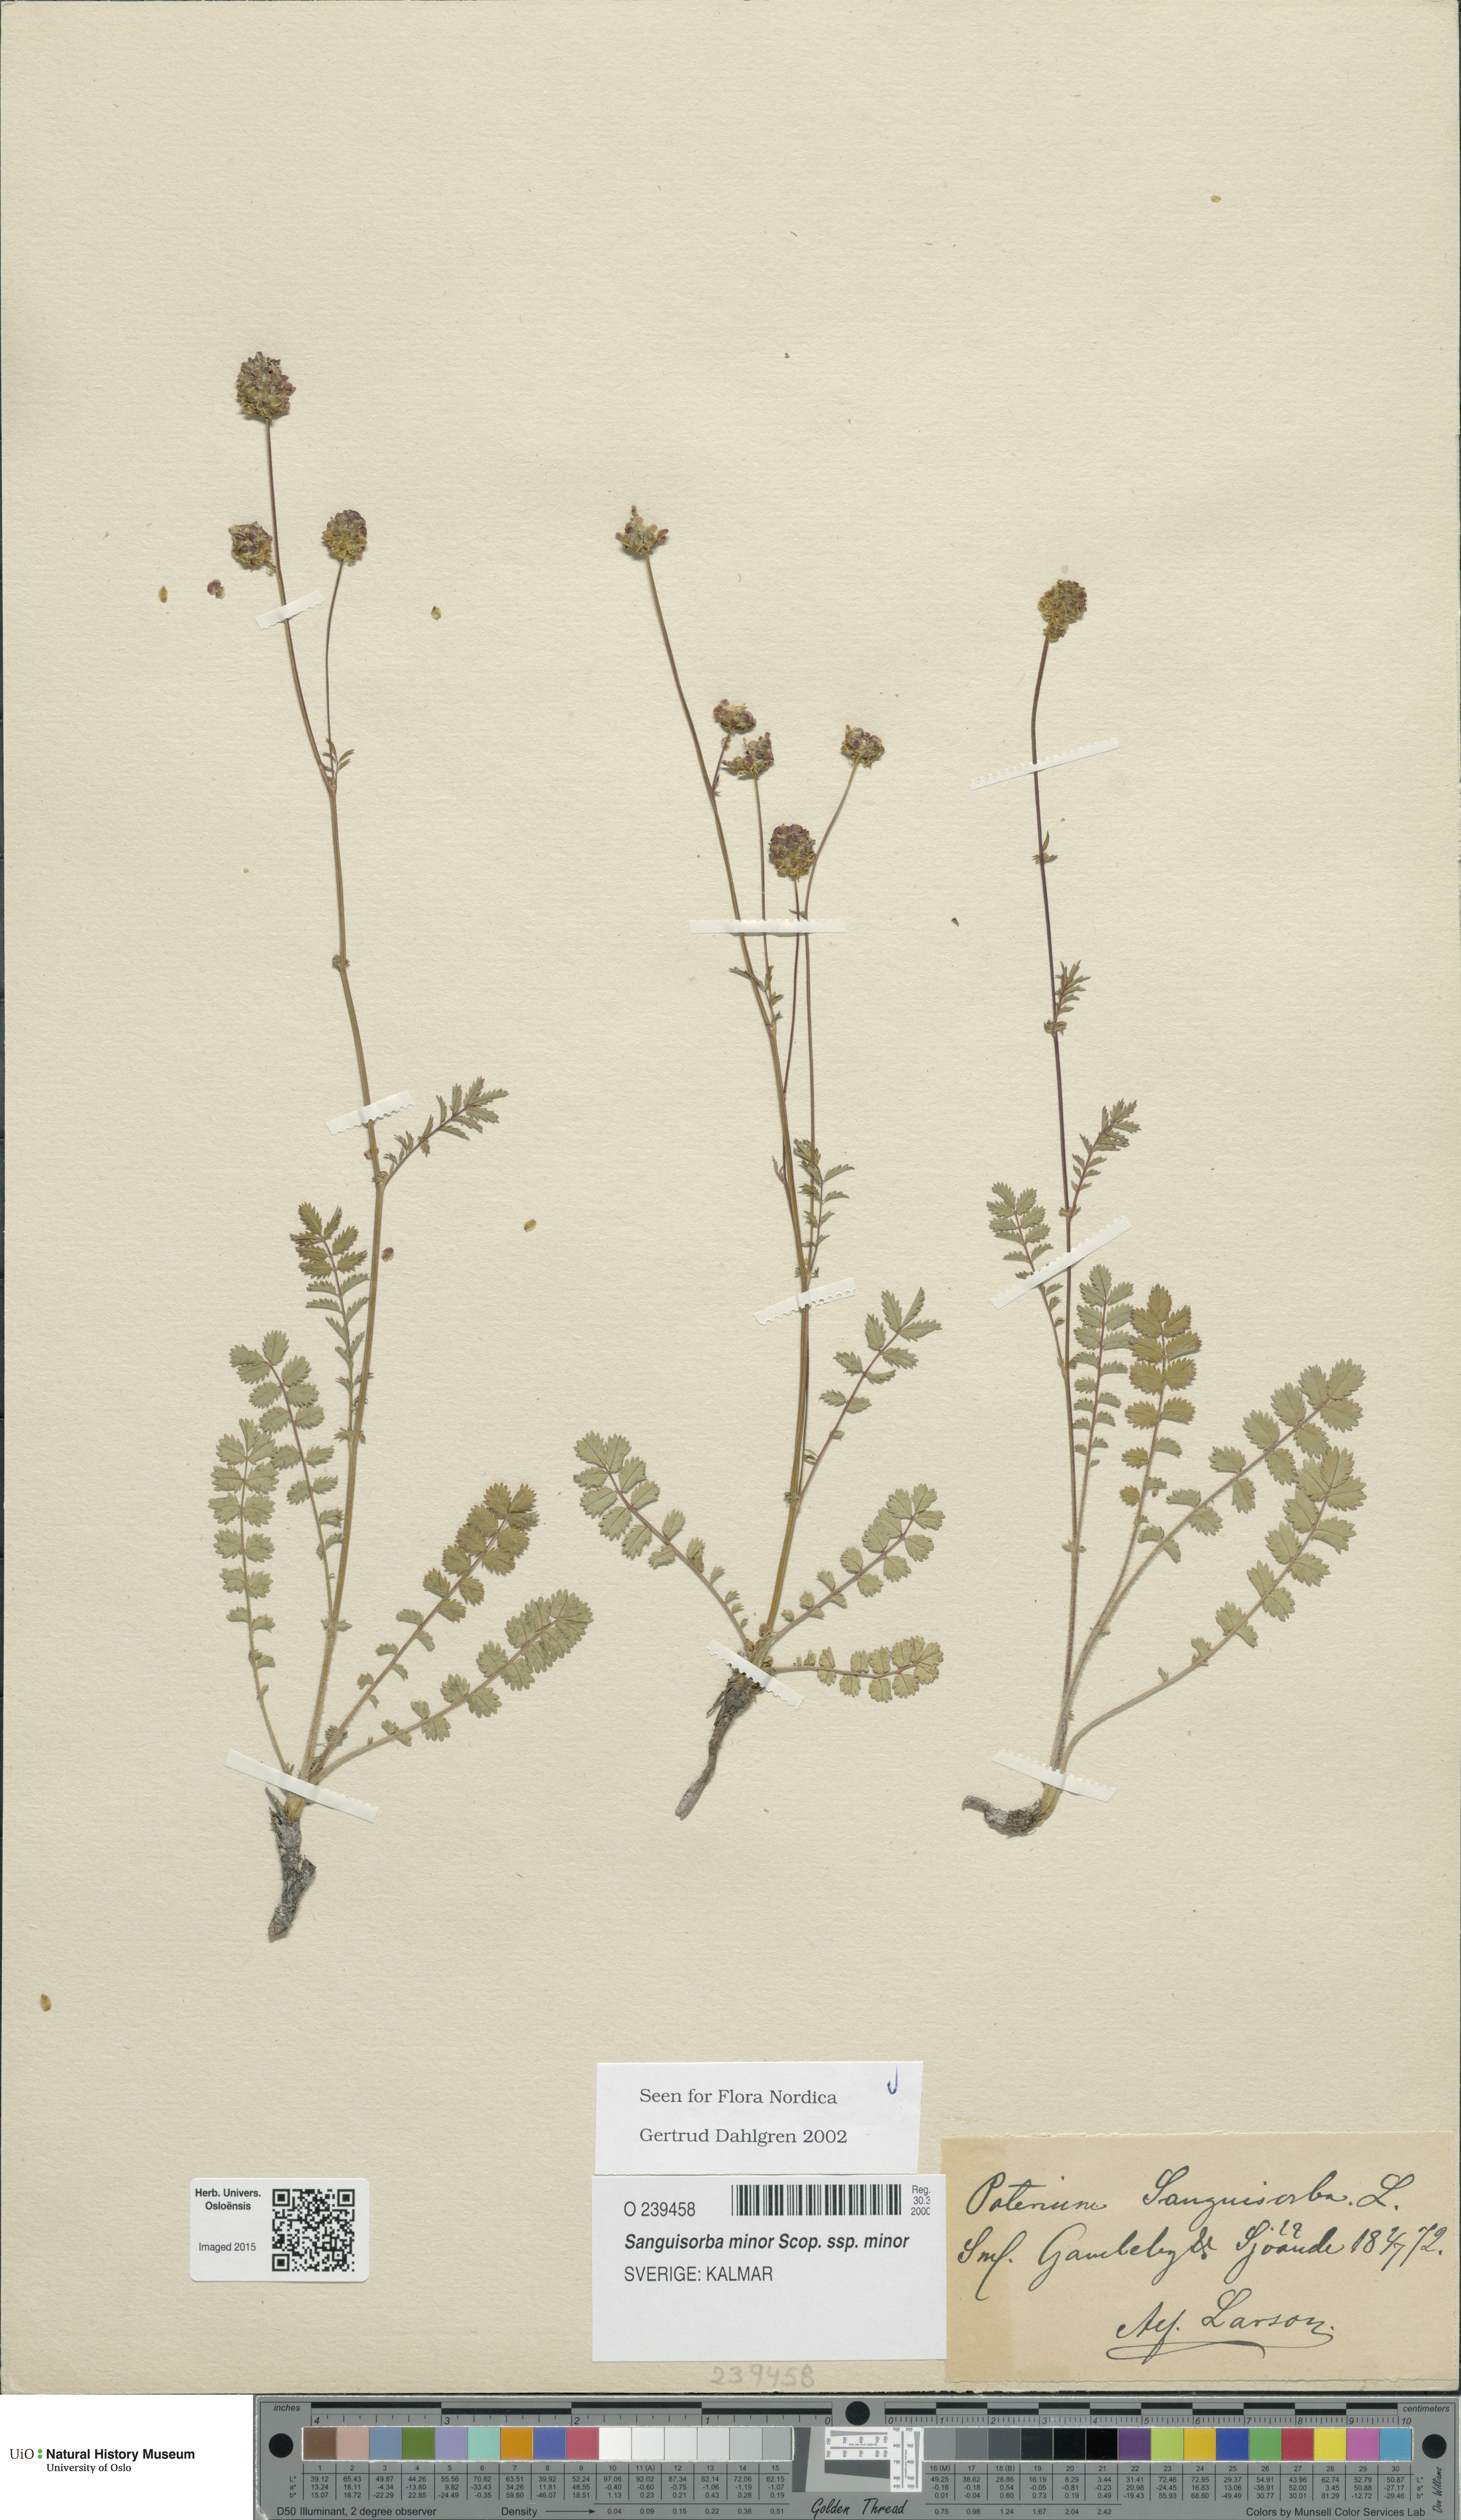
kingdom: Plantae
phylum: Tracheophyta
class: Magnoliopsida
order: Rosales
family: Rosaceae
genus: Poterium
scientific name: Poterium sanguisorba
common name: Salad burnet
